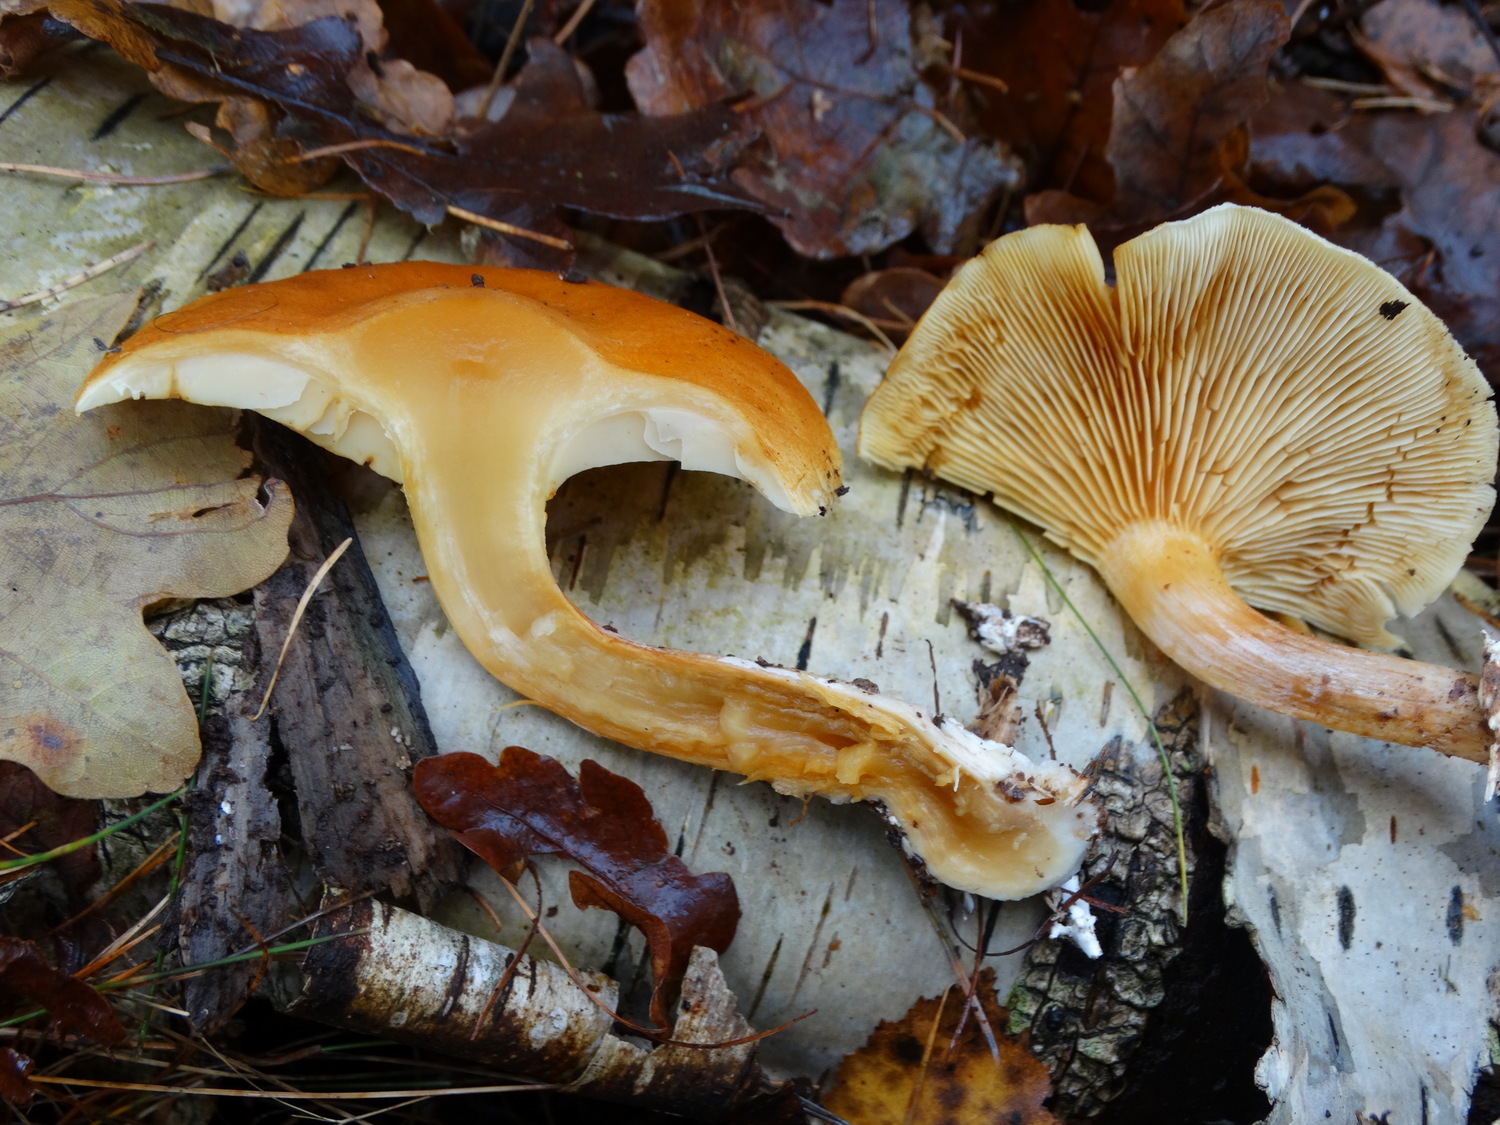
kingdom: Fungi
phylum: Basidiomycota
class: Agaricomycetes
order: Agaricales
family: Hymenogastraceae
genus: Gymnopilus
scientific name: Gymnopilus penetrans
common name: plettet flammehat
